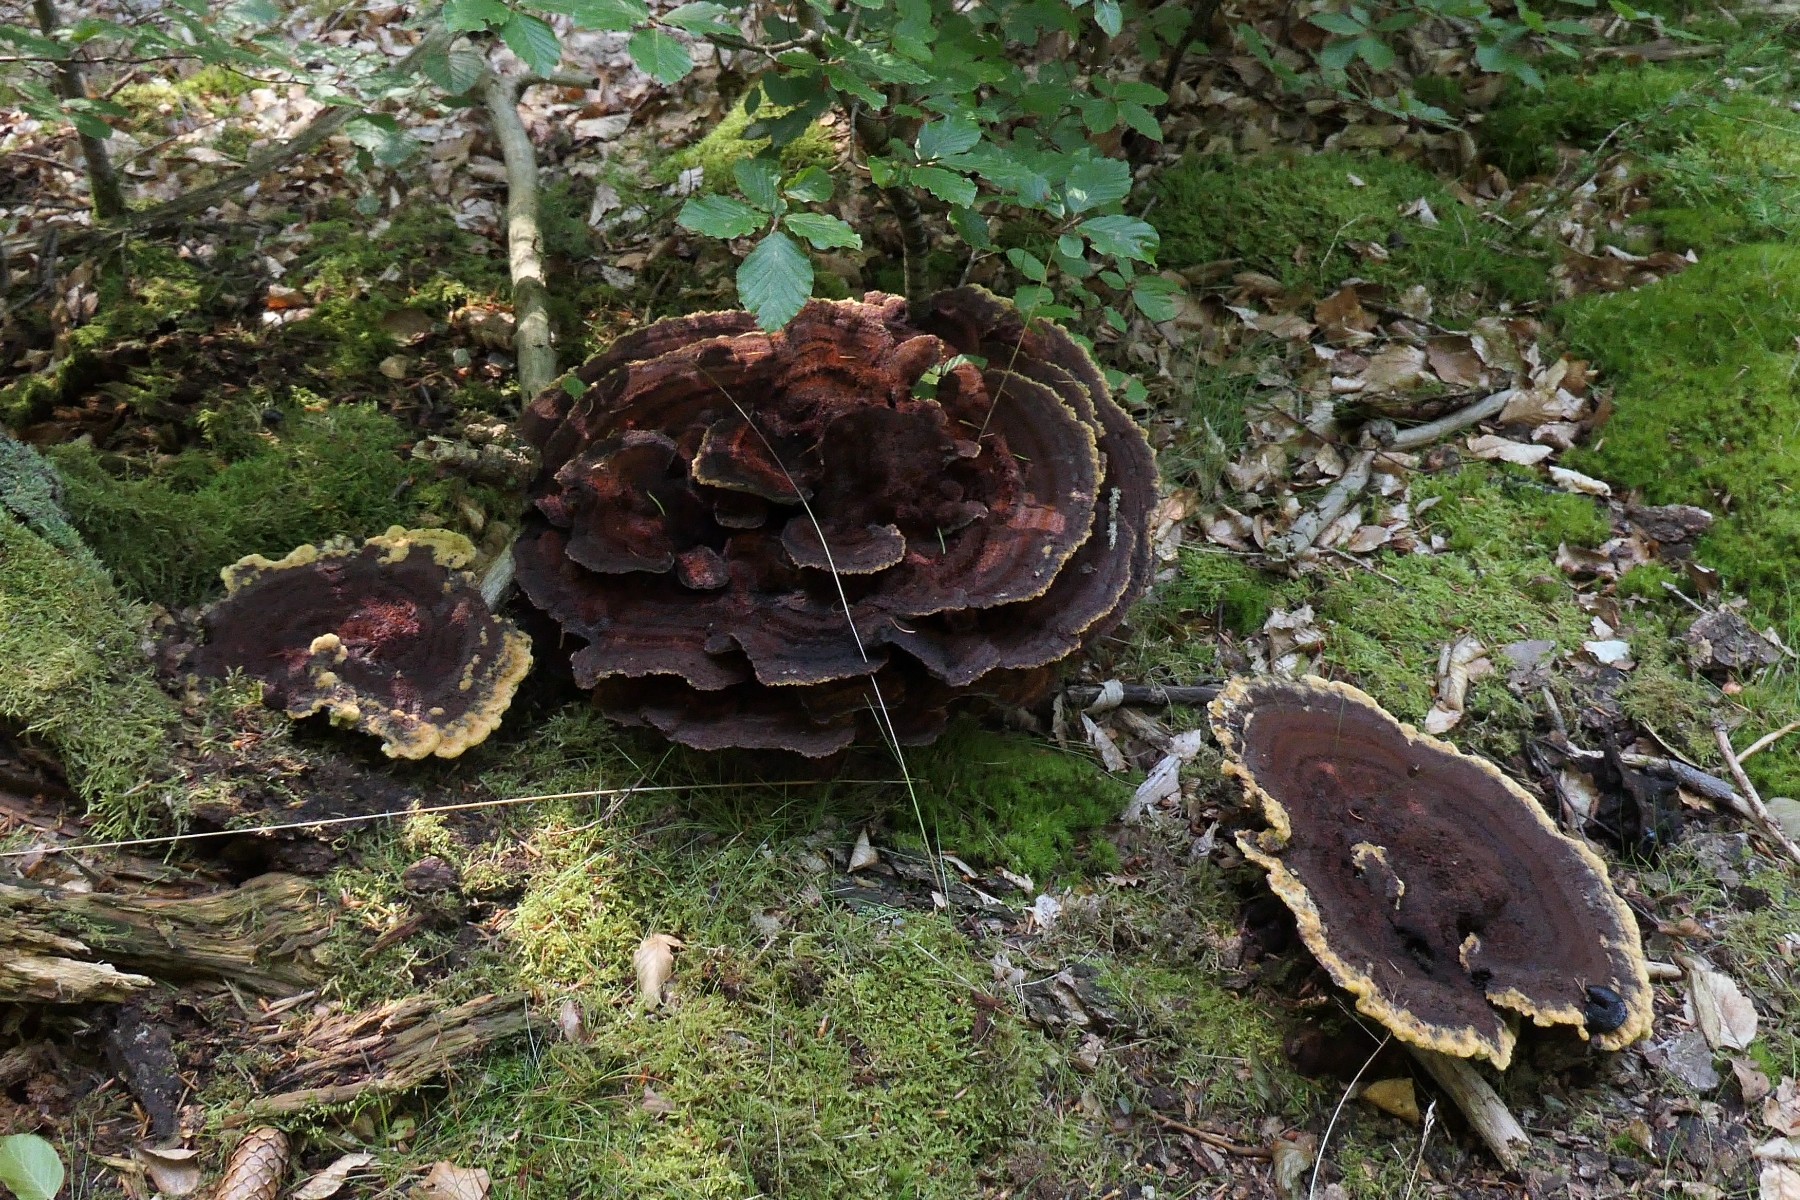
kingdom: Fungi
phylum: Basidiomycota
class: Agaricomycetes
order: Polyporales
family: Laetiporaceae
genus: Phaeolus
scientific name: Phaeolus schweinitzii
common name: brunporesvamp
